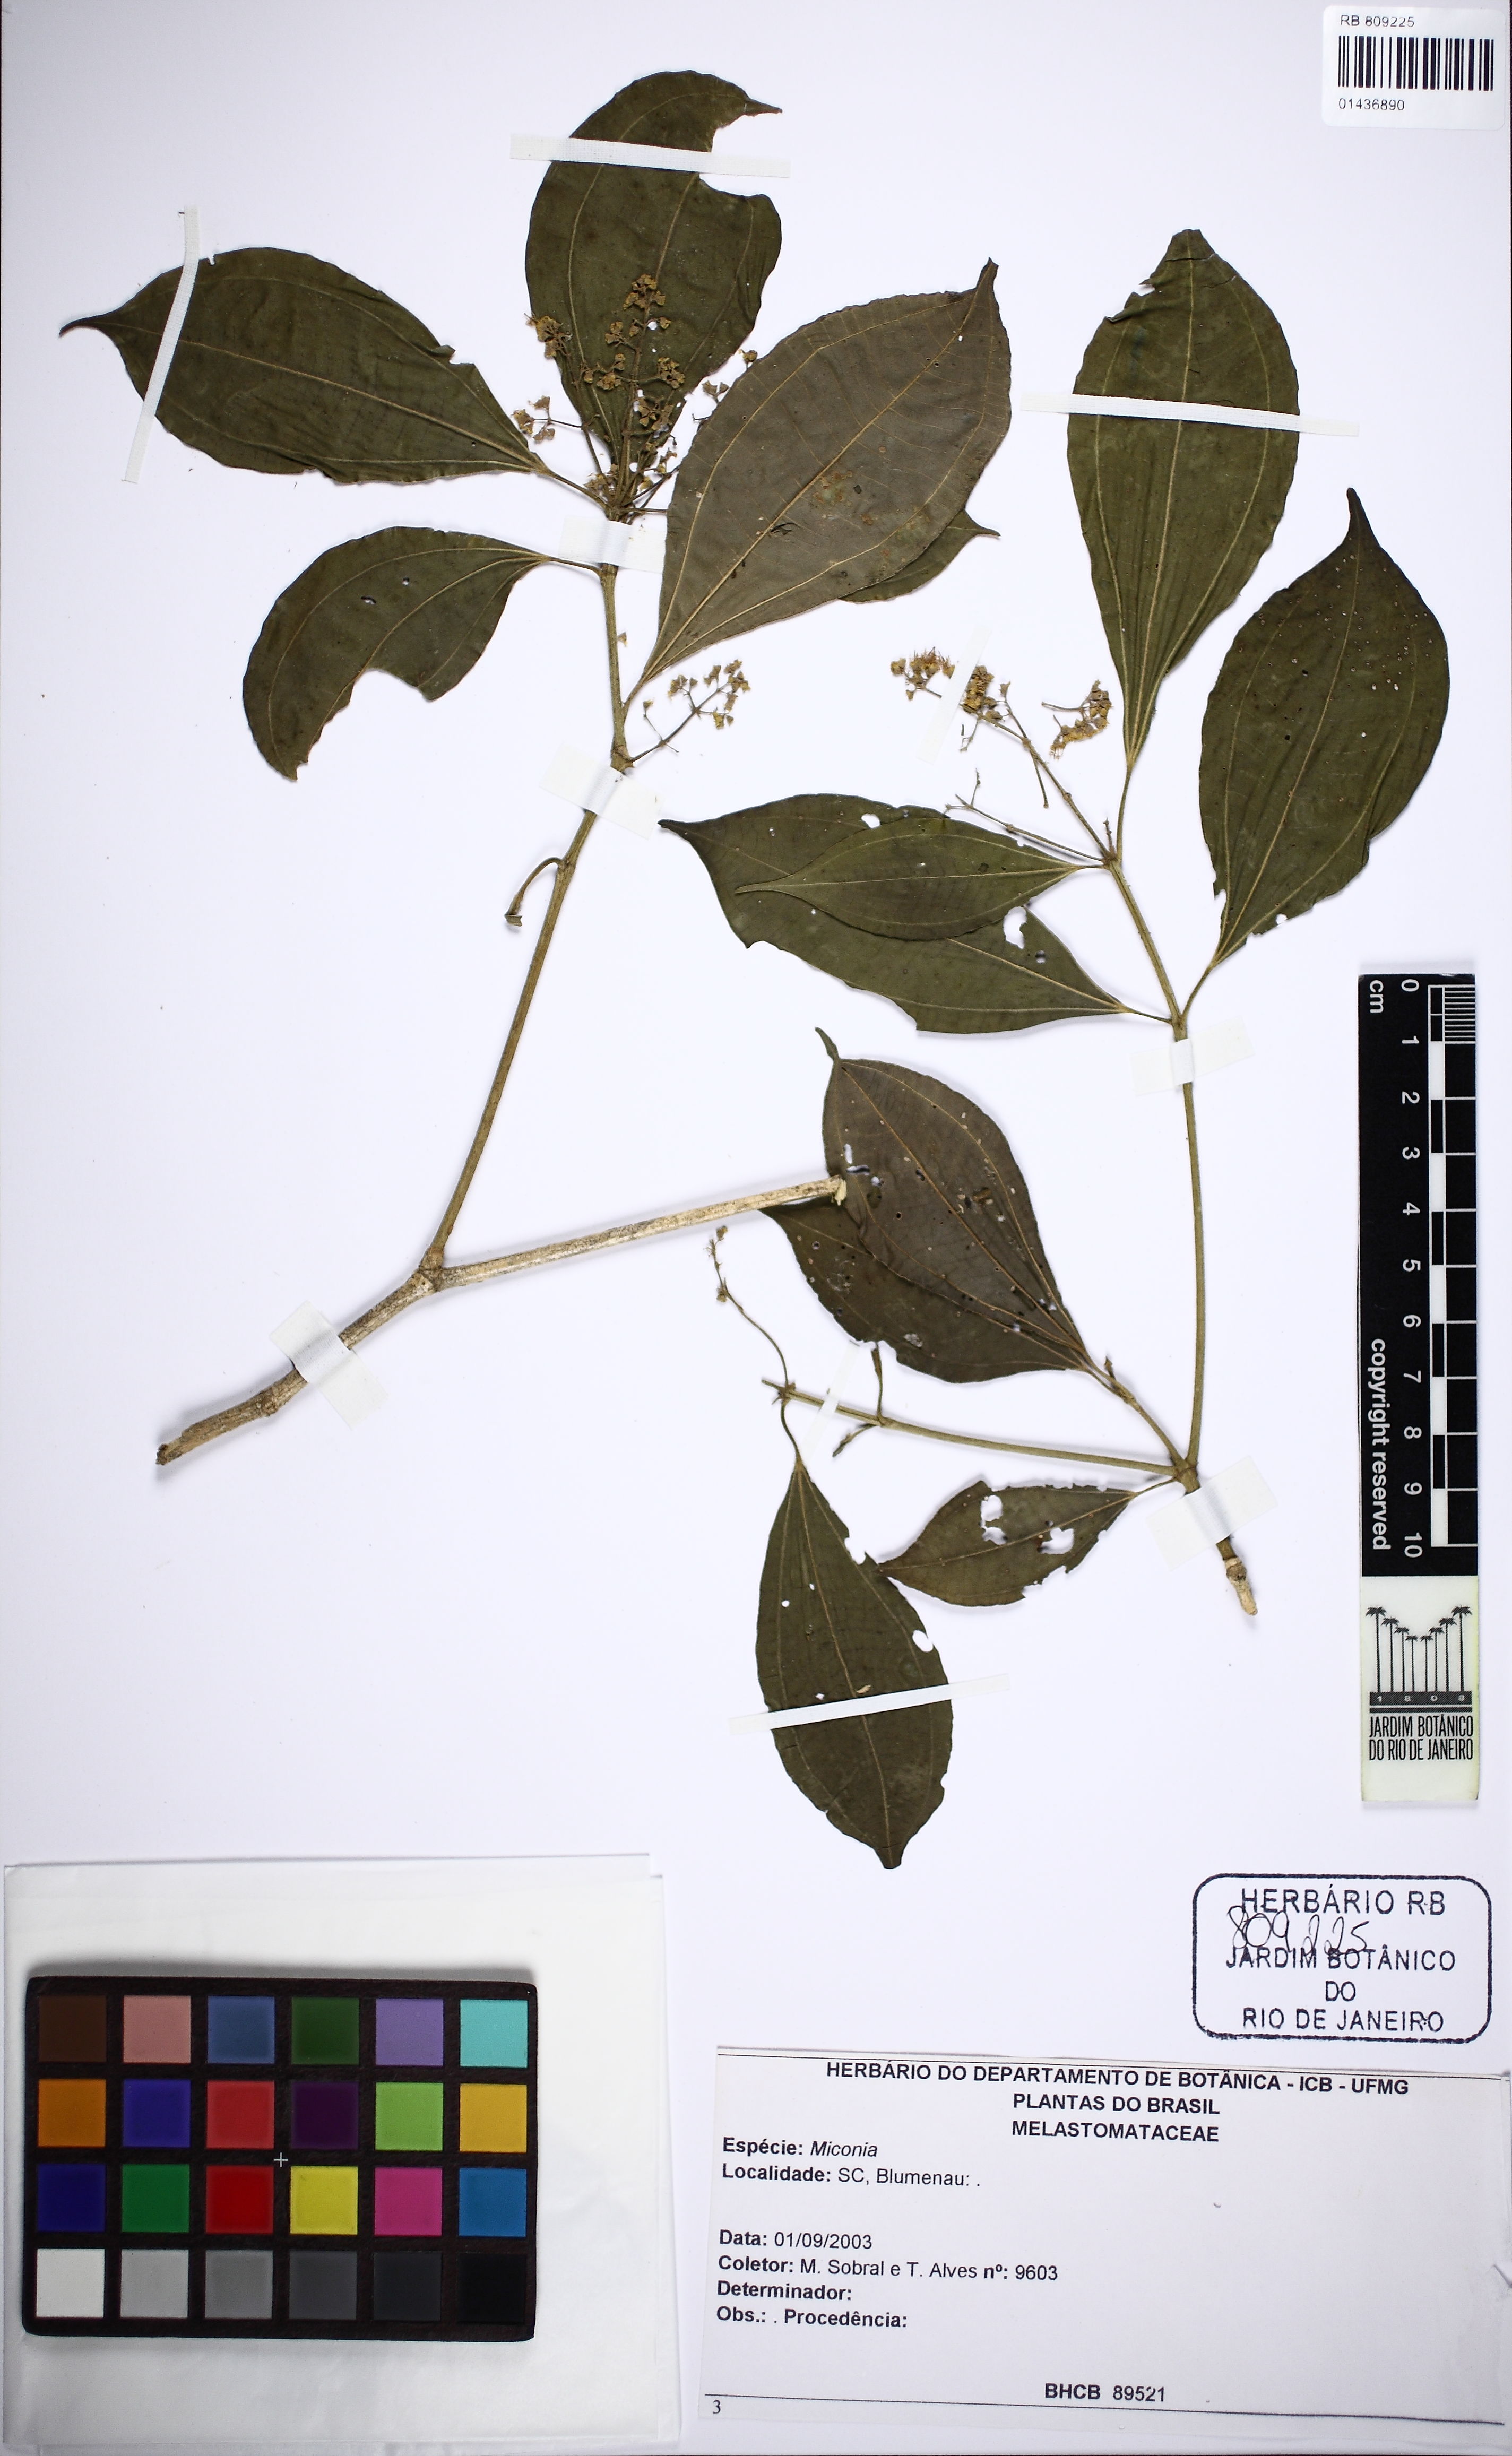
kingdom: Plantae
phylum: Tracheophyta
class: Magnoliopsida
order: Myrtales
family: Melastomataceae
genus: Miconia
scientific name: Miconia
